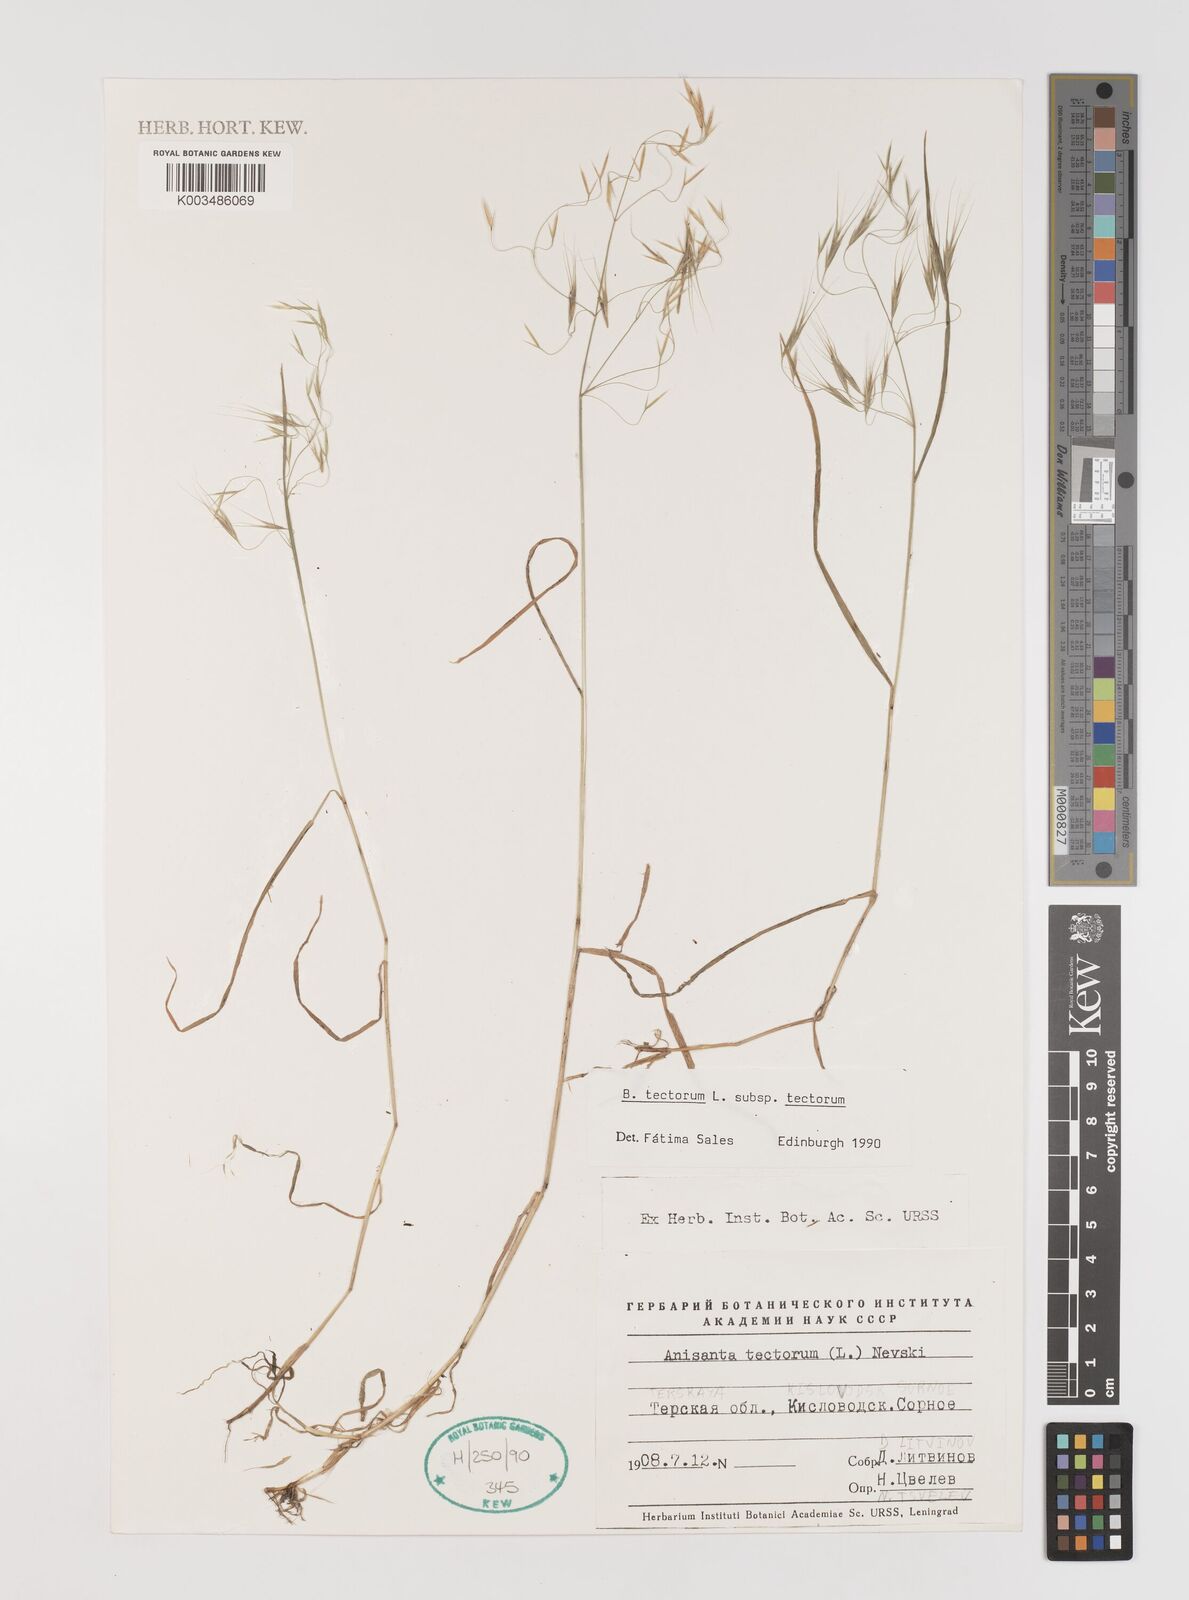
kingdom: Plantae
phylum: Tracheophyta
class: Liliopsida
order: Poales
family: Poaceae
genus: Bromus
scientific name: Bromus tectorum
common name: Cheatgrass
